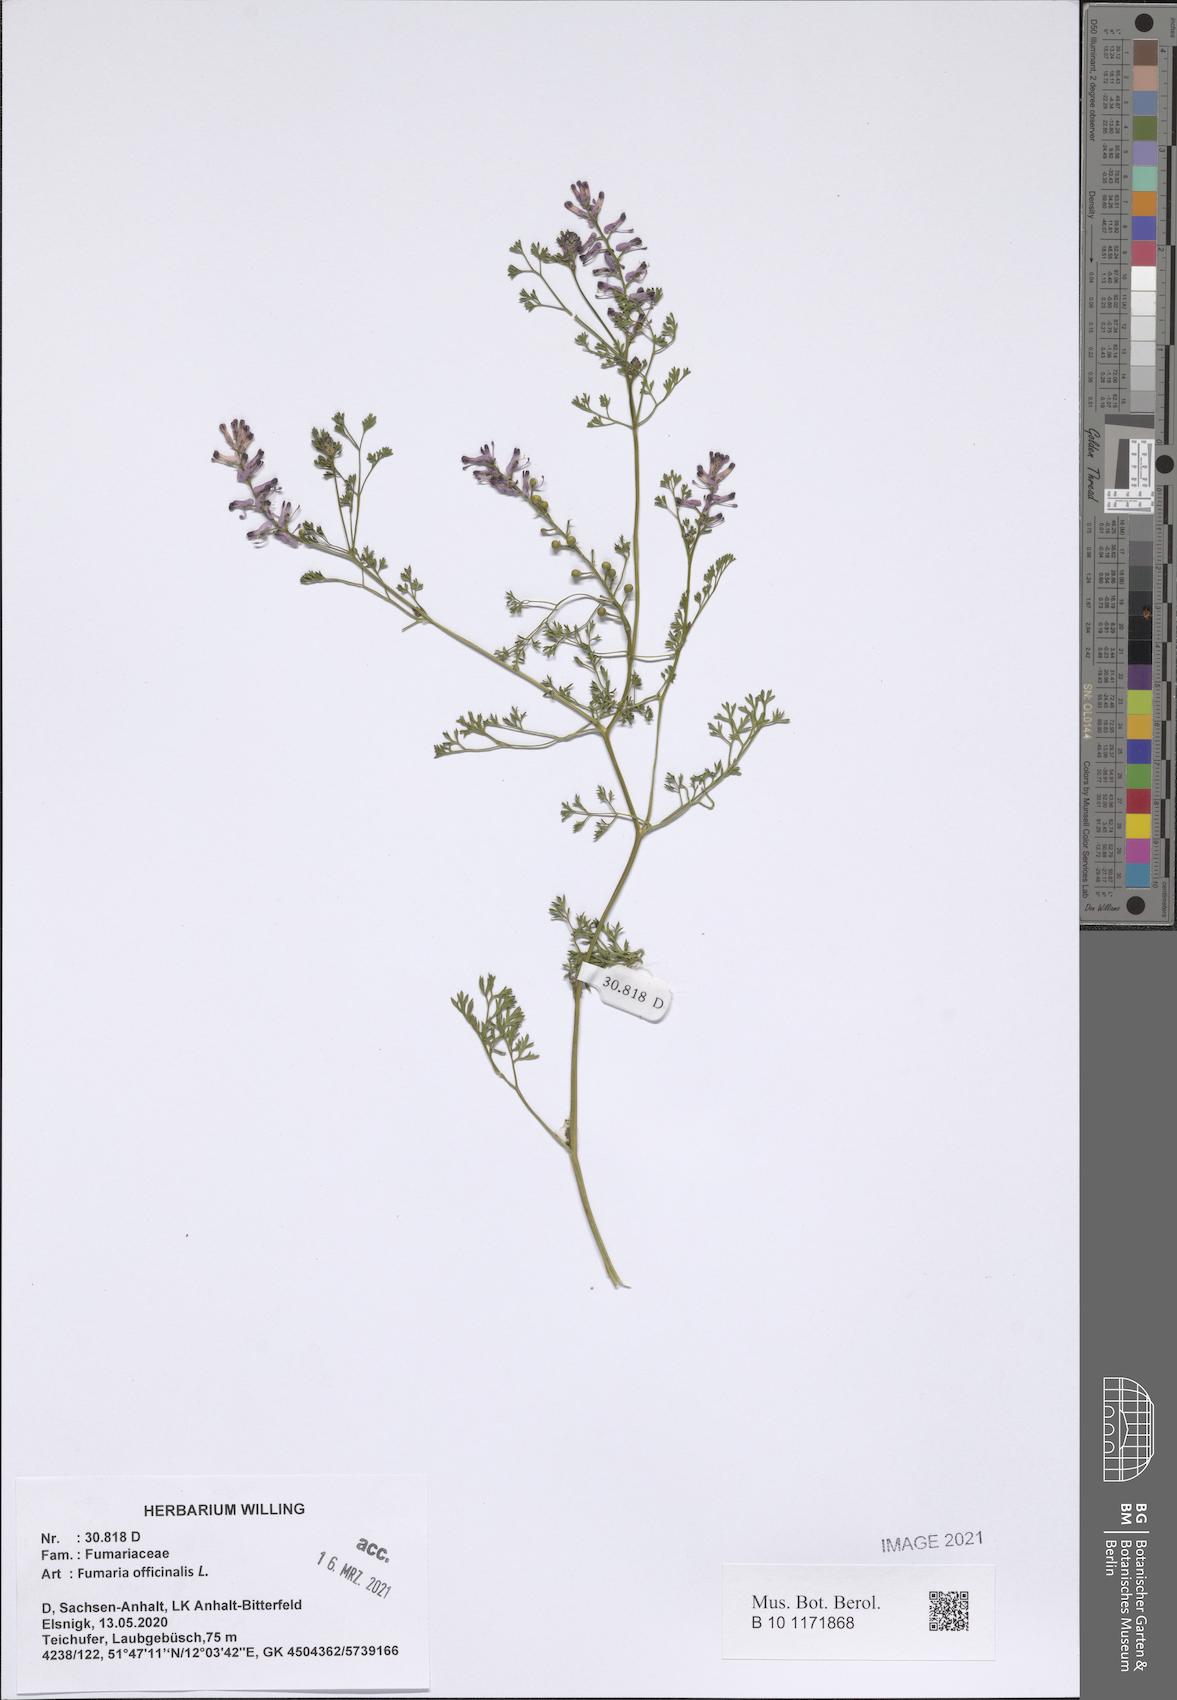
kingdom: Plantae
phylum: Tracheophyta
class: Magnoliopsida
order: Ranunculales
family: Papaveraceae
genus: Fumaria
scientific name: Fumaria officinalis
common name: Common fumitory
